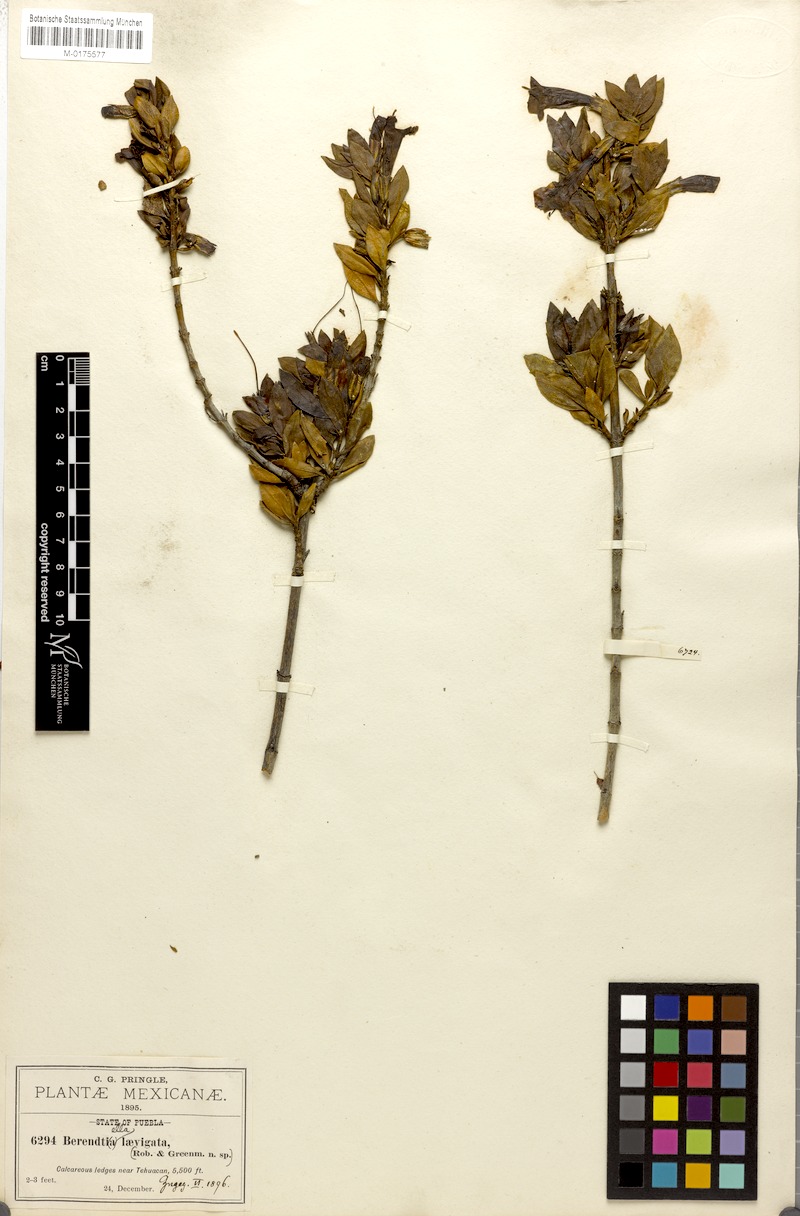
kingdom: Plantae
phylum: Tracheophyta
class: Magnoliopsida
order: Lamiales
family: Phrymaceae
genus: Hemichaena
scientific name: Hemichaena levigata
